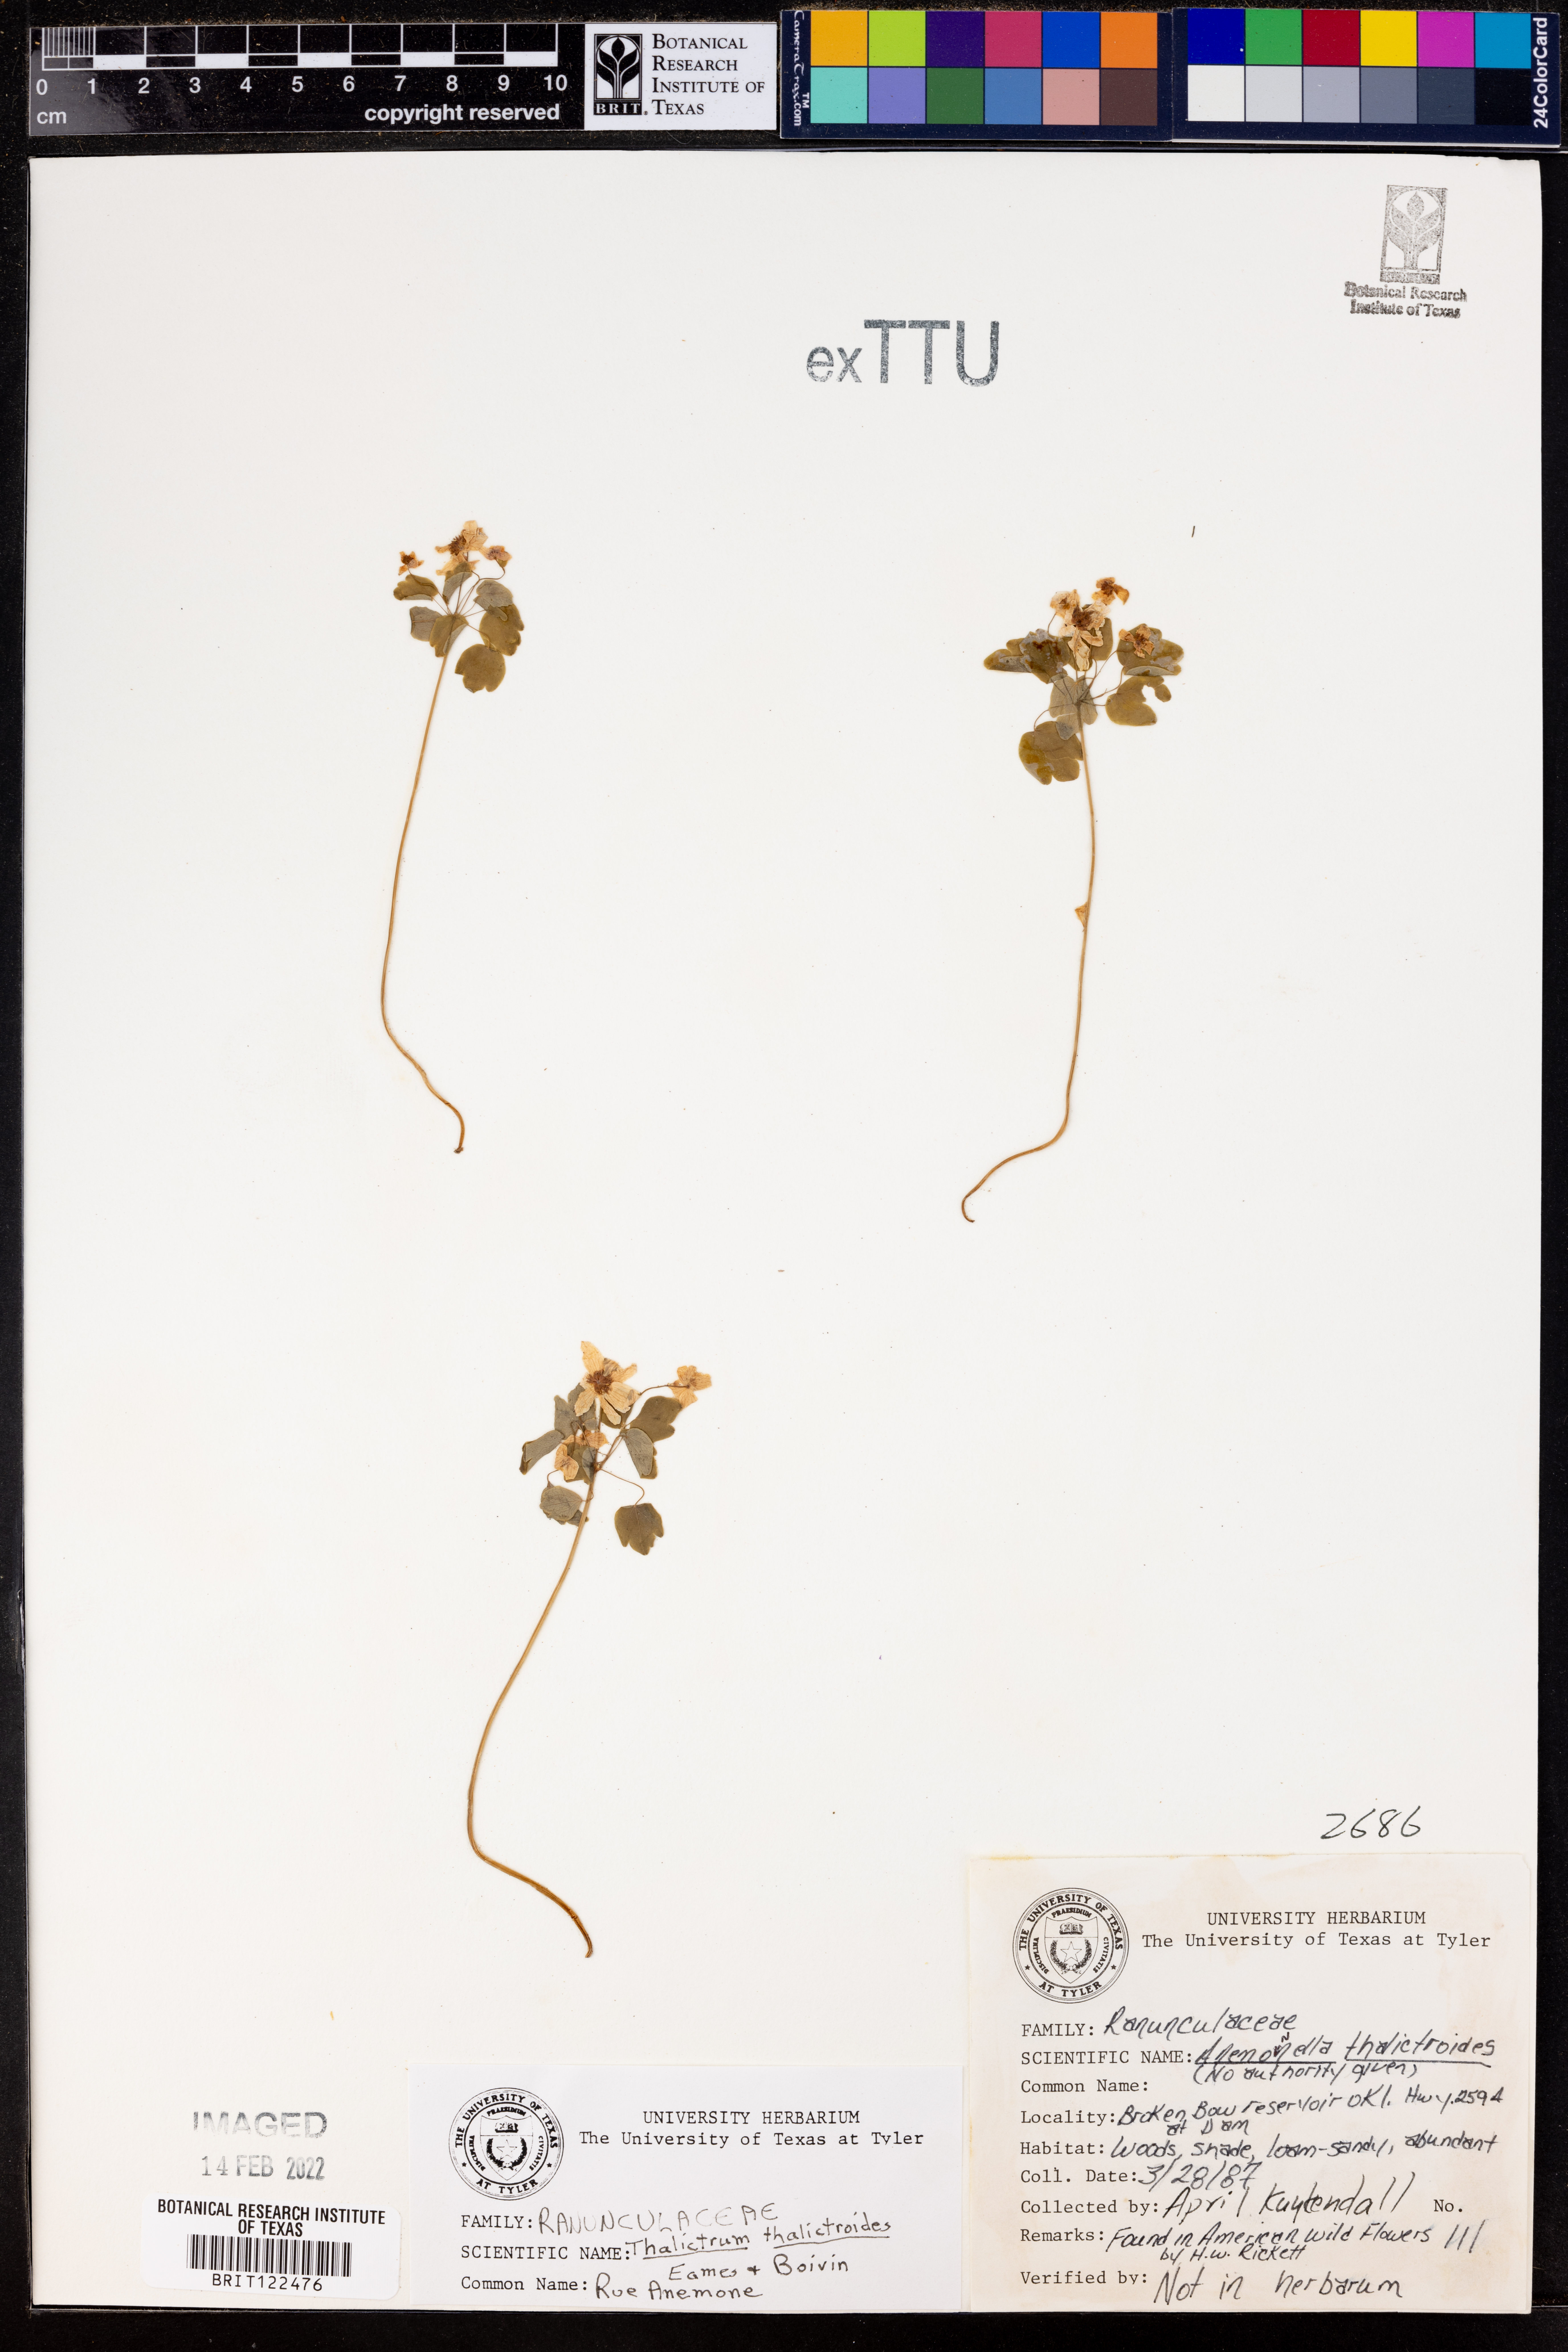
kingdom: Plantae
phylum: Tracheophyta
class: Magnoliopsida
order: Ranunculales
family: Ranunculaceae
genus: Thalictrum
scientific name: Thalictrum thalictroides
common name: Rue-anemone
